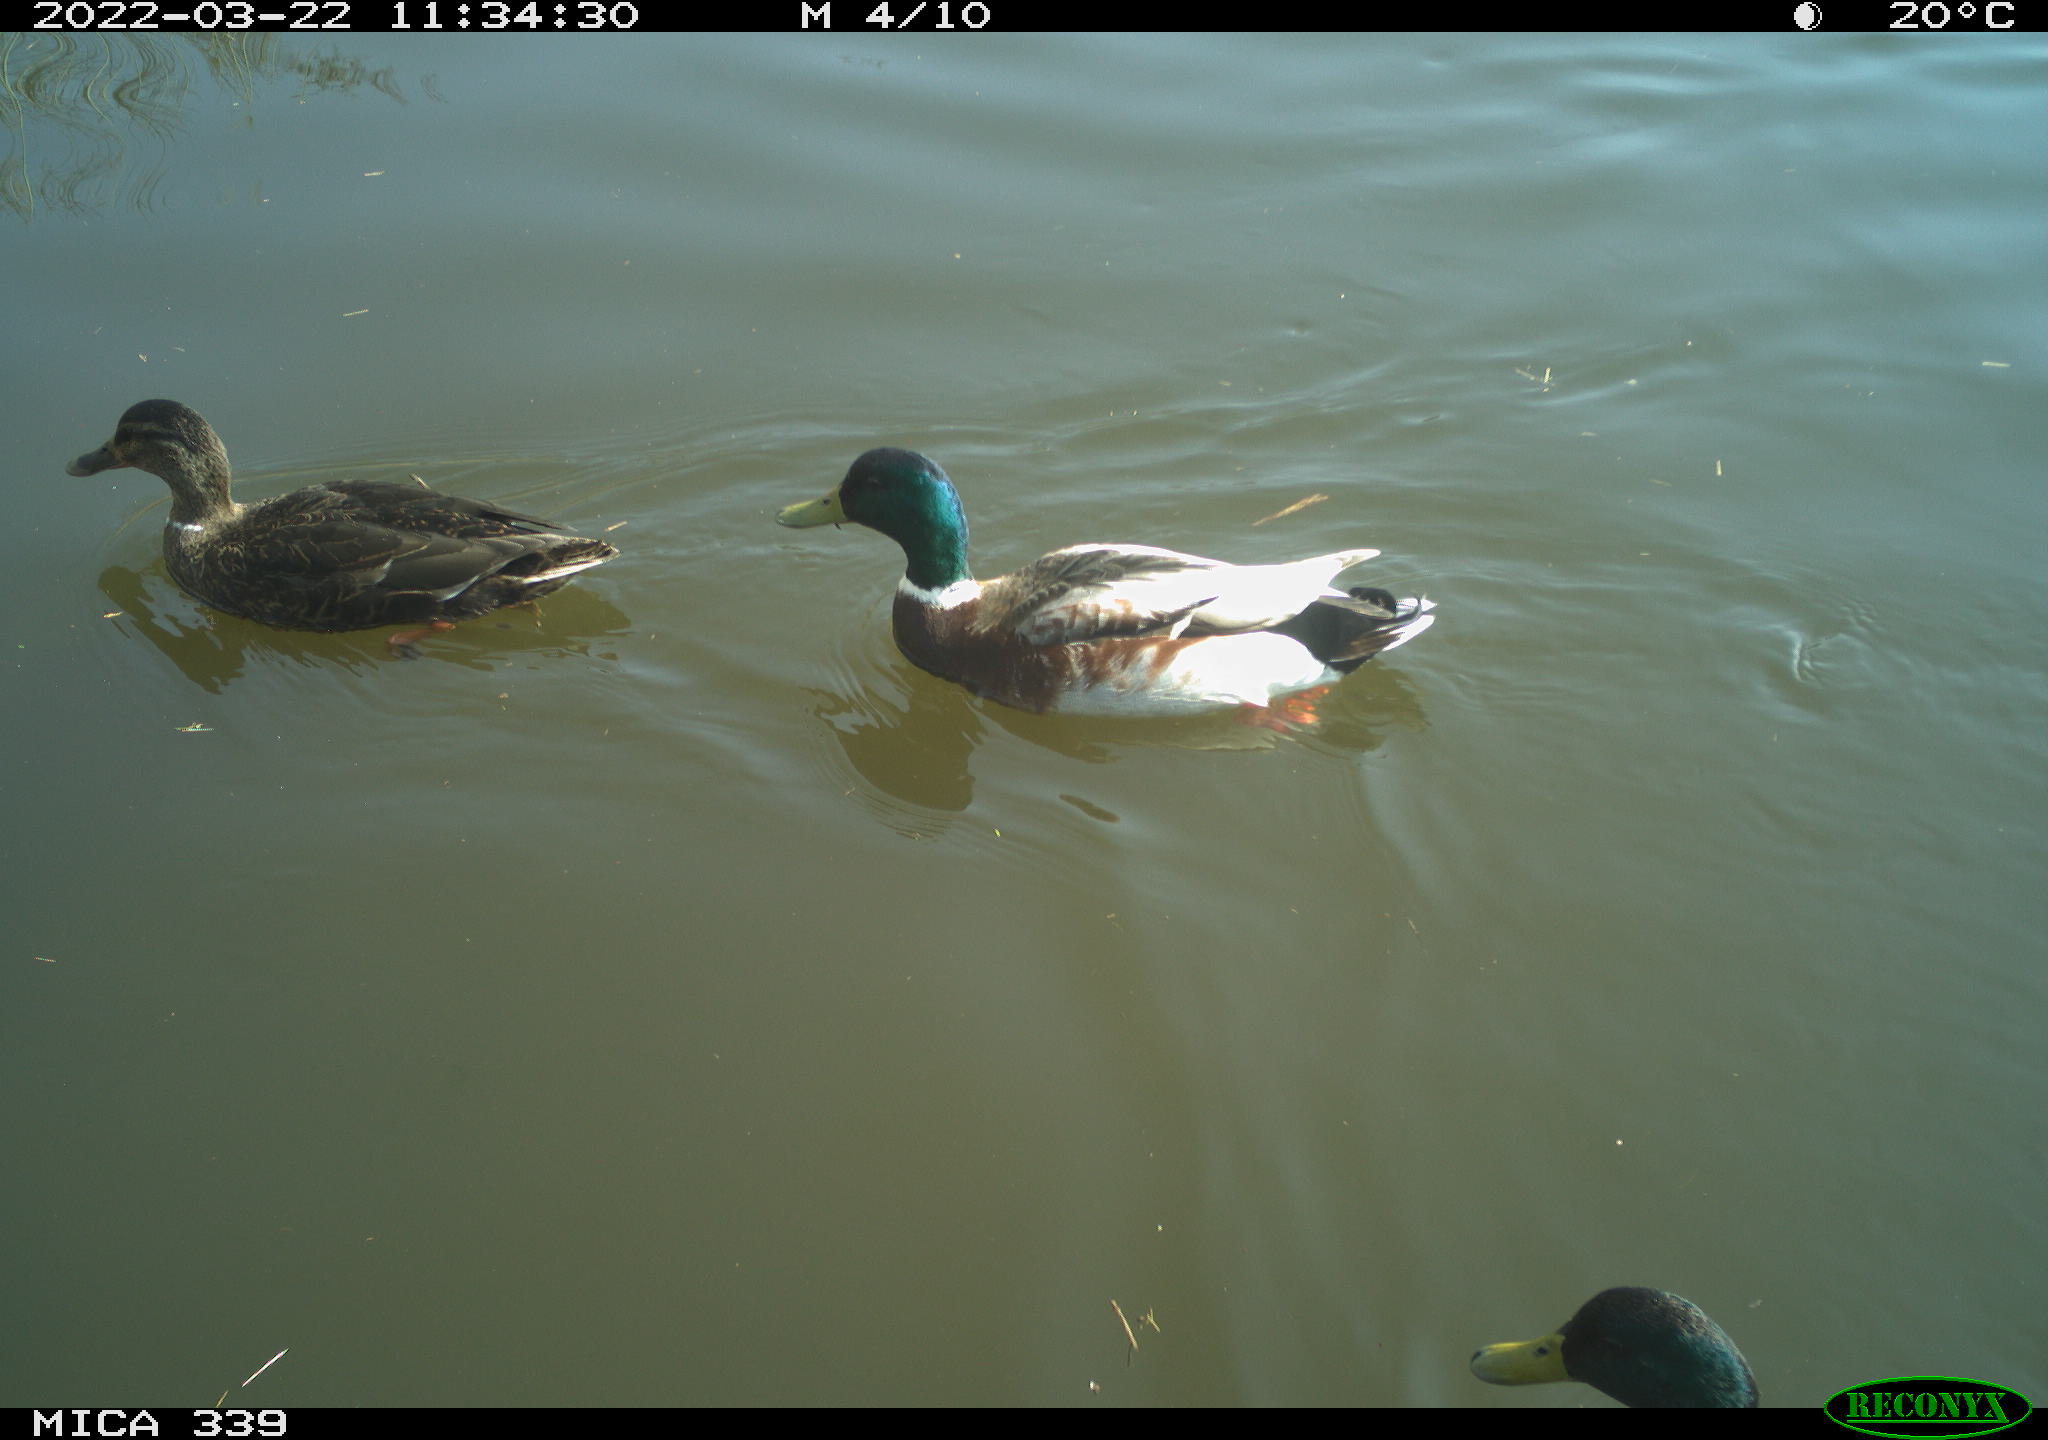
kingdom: Animalia
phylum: Chordata
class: Aves
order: Anseriformes
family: Anatidae
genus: Anas
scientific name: Anas platyrhynchos
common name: Mallard
